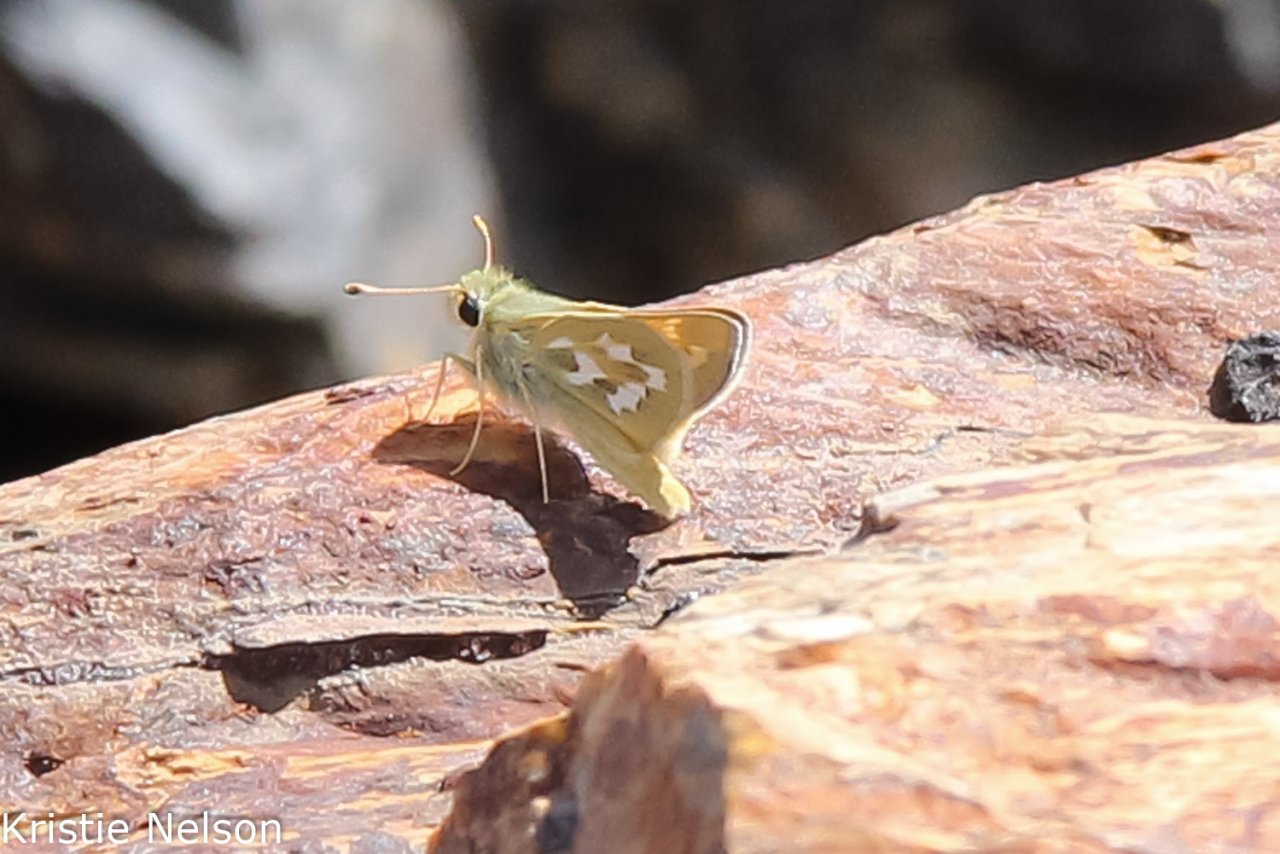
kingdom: Animalia
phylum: Arthropoda
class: Insecta
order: Lepidoptera
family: Hesperiidae
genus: Hesperia
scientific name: Hesperia comma
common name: Western Branded Skipper
